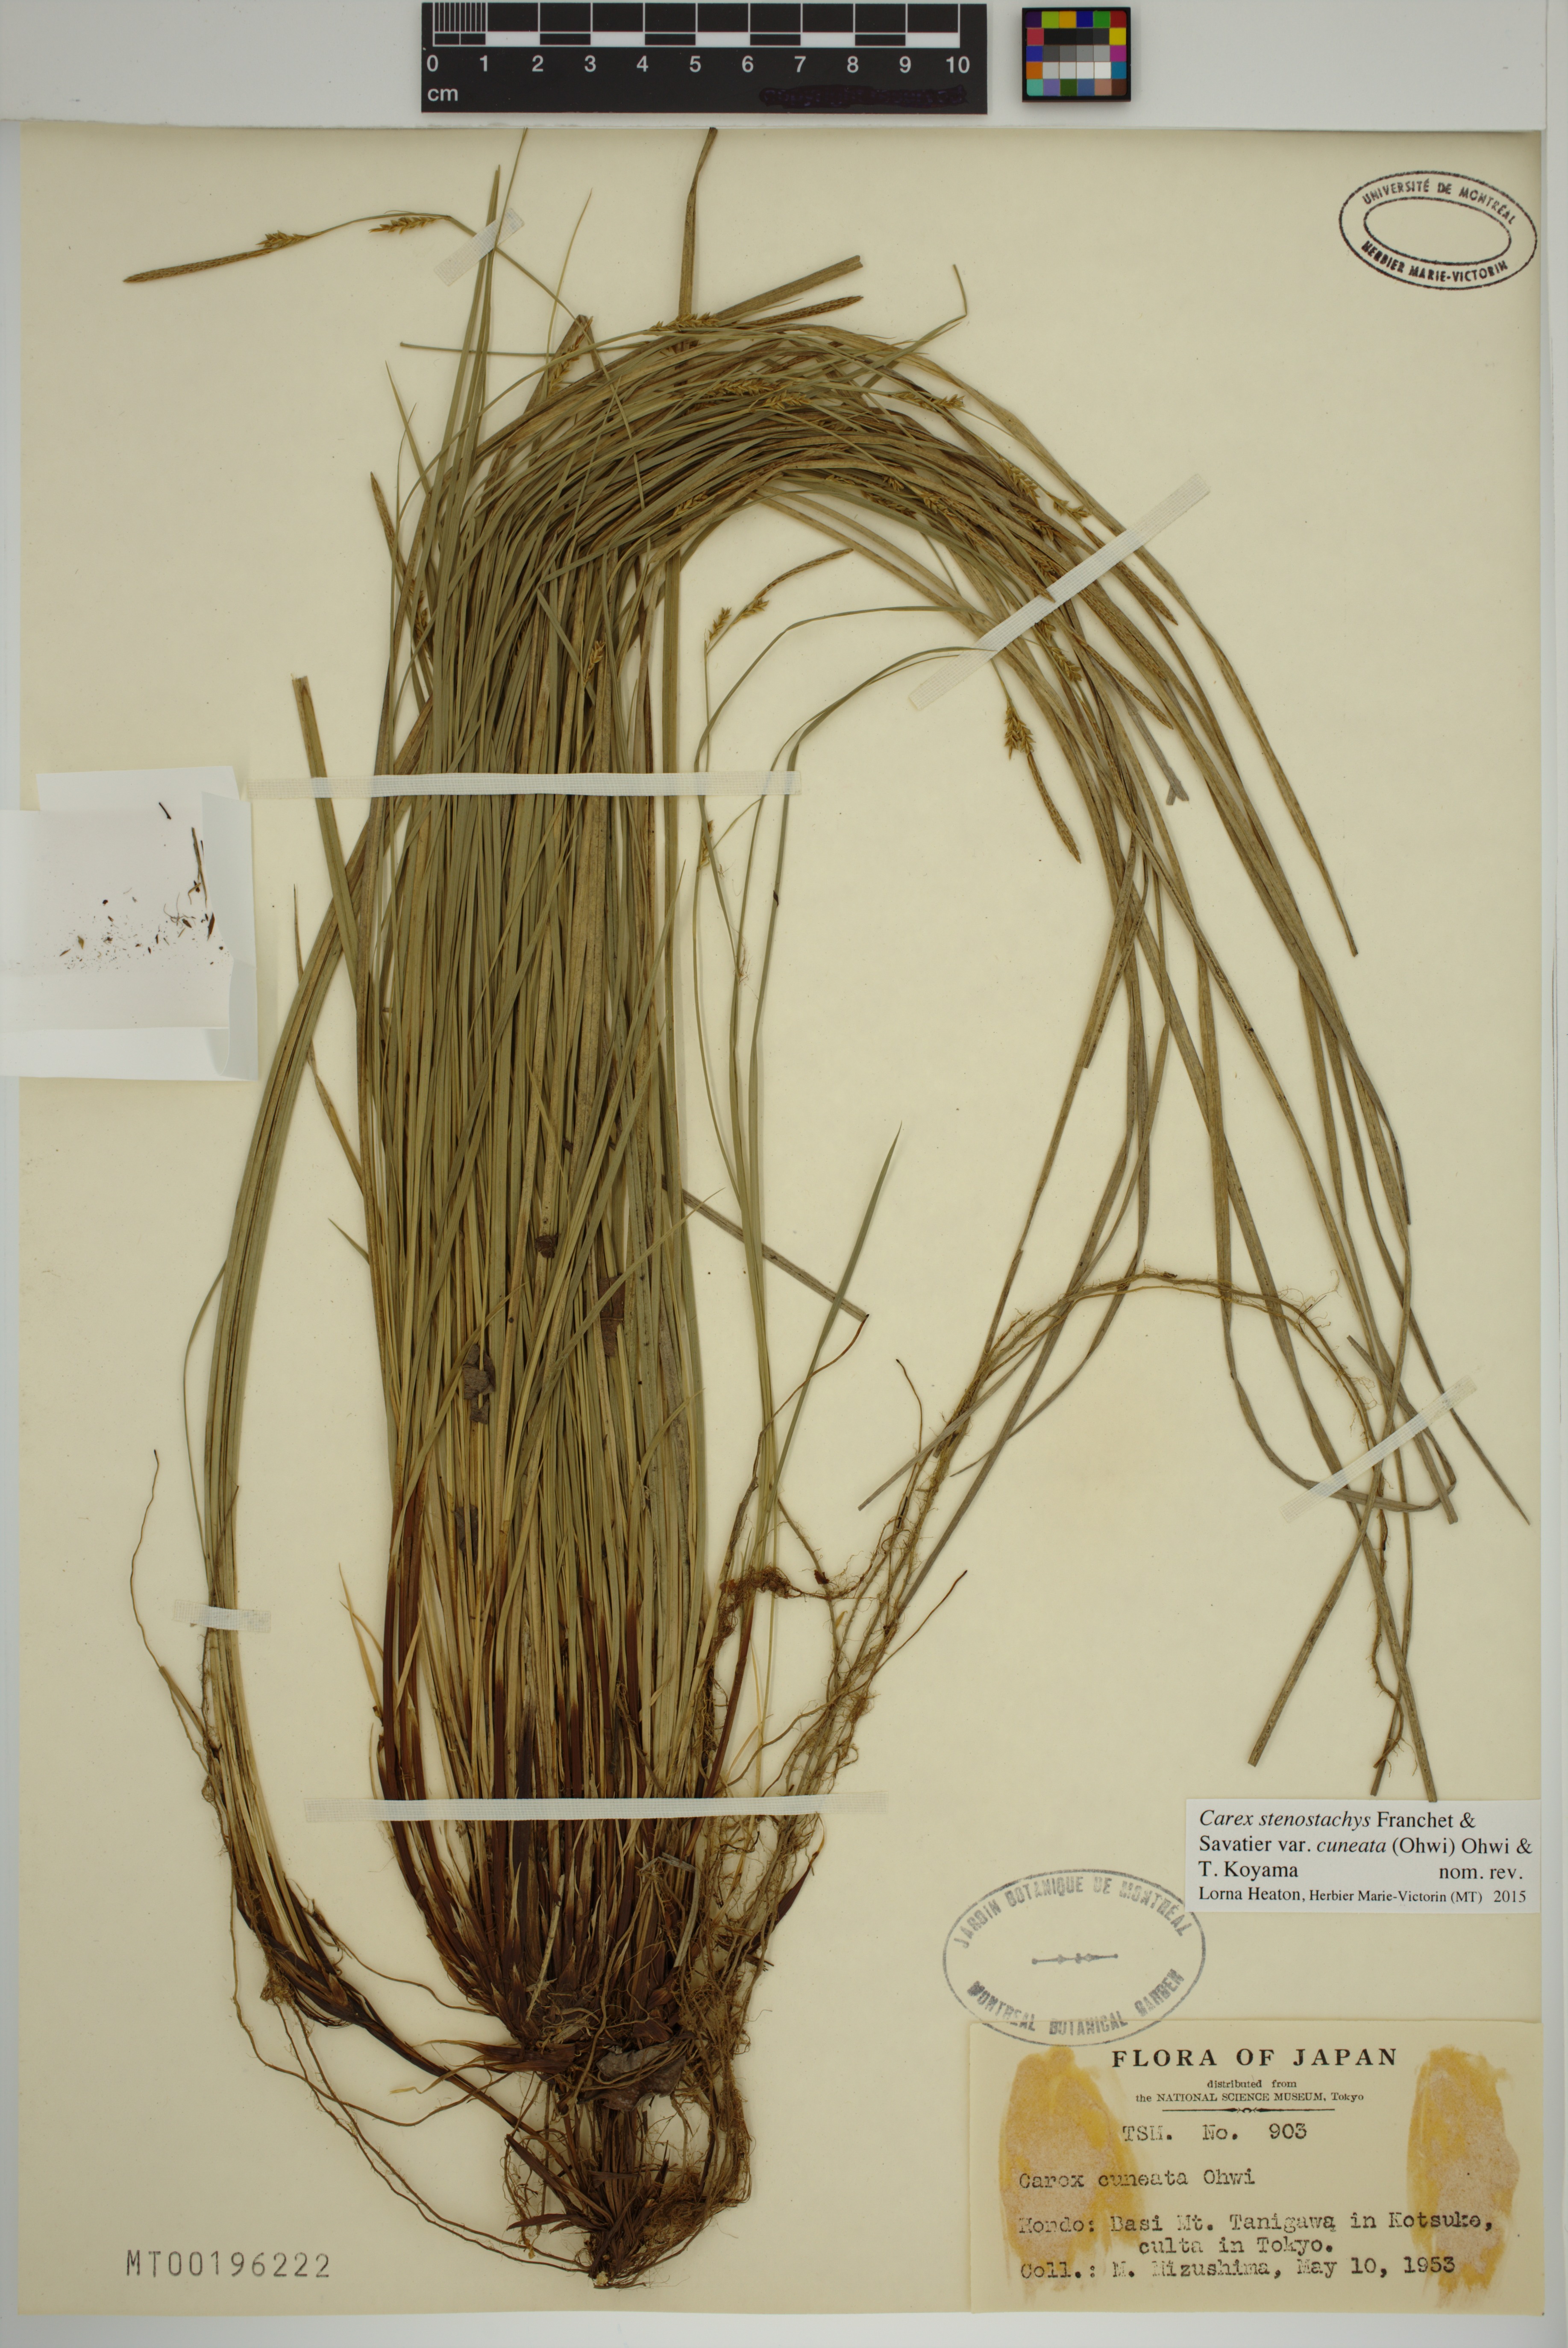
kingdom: Plantae
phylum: Tracheophyta
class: Liliopsida
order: Poales
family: Cyperaceae
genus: Carex
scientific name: Carex stenostachys
